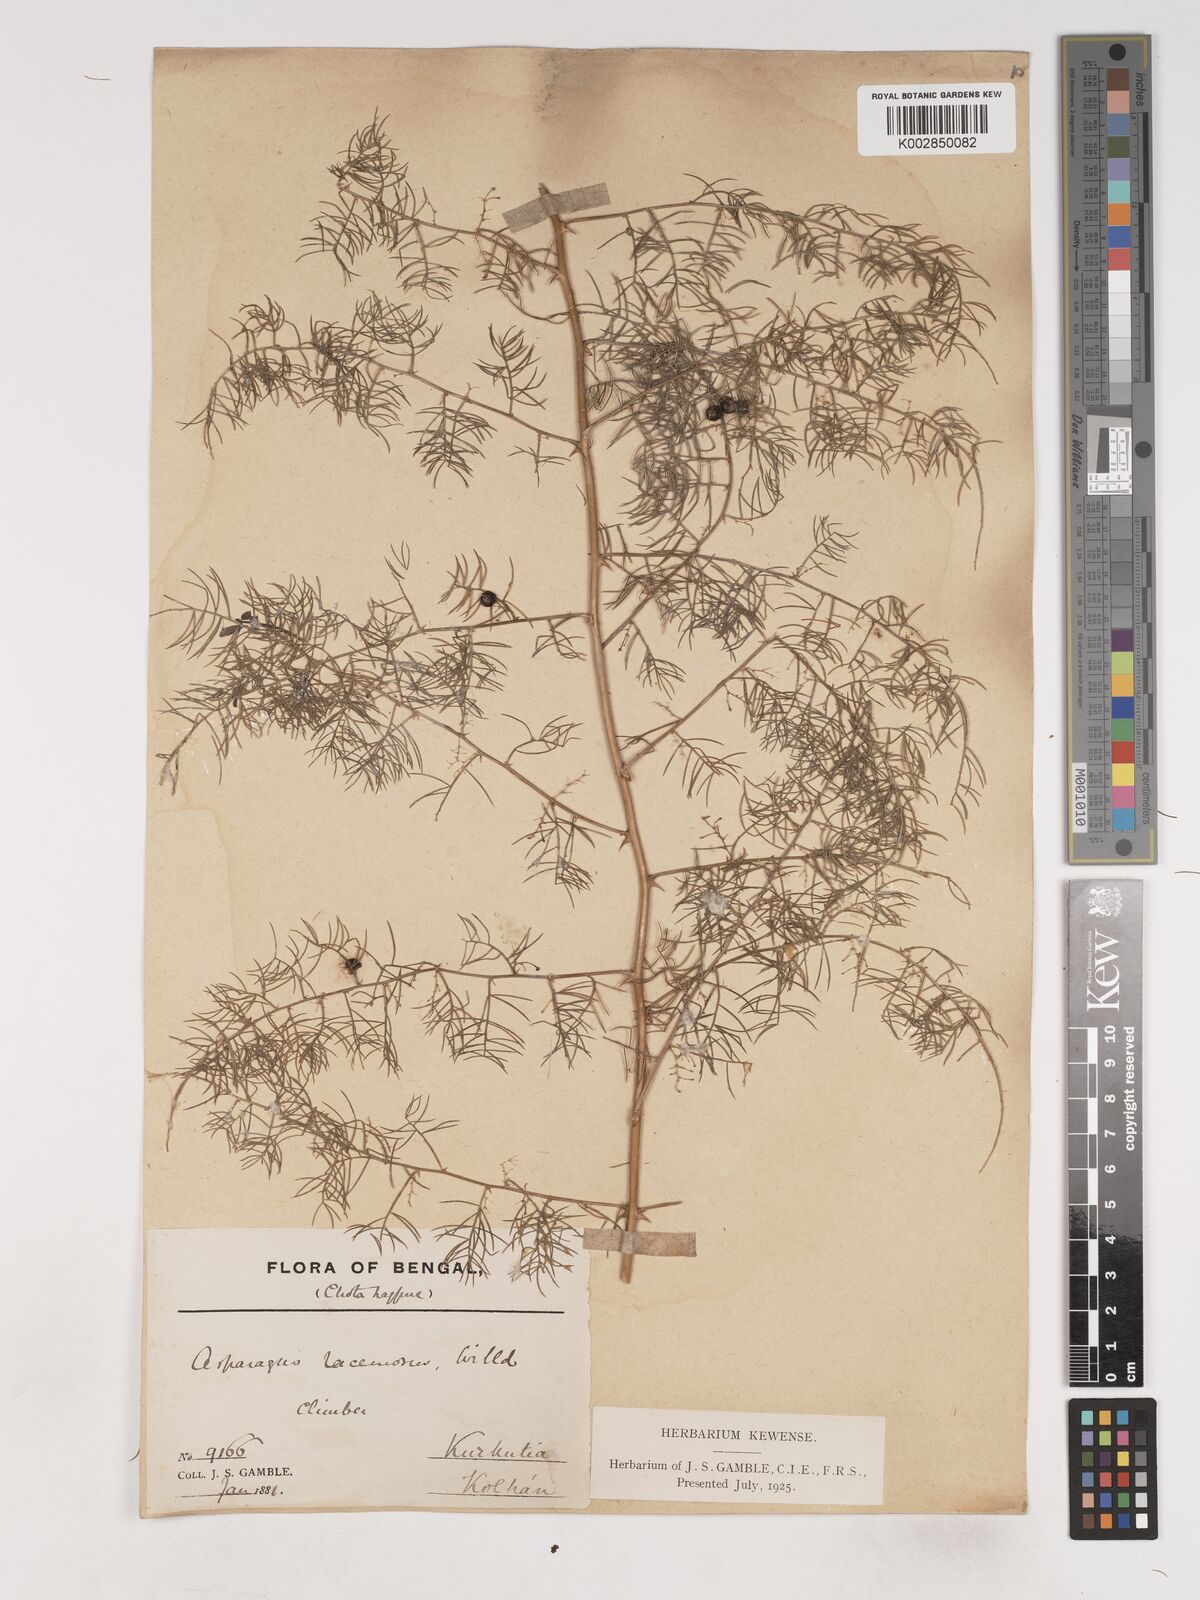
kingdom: Plantae
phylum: Tracheophyta
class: Liliopsida
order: Asparagales
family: Asparagaceae
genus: Asparagus
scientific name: Asparagus racemosus
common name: Asparagus-fern
